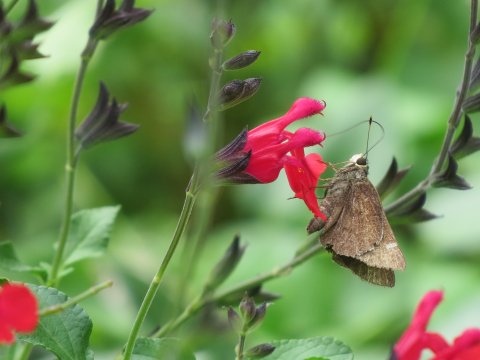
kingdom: Animalia
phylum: Arthropoda
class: Insecta
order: Lepidoptera
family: Hesperiidae
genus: Atrytonopsis
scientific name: Atrytonopsis lunus
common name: Moon-marked Skipper
